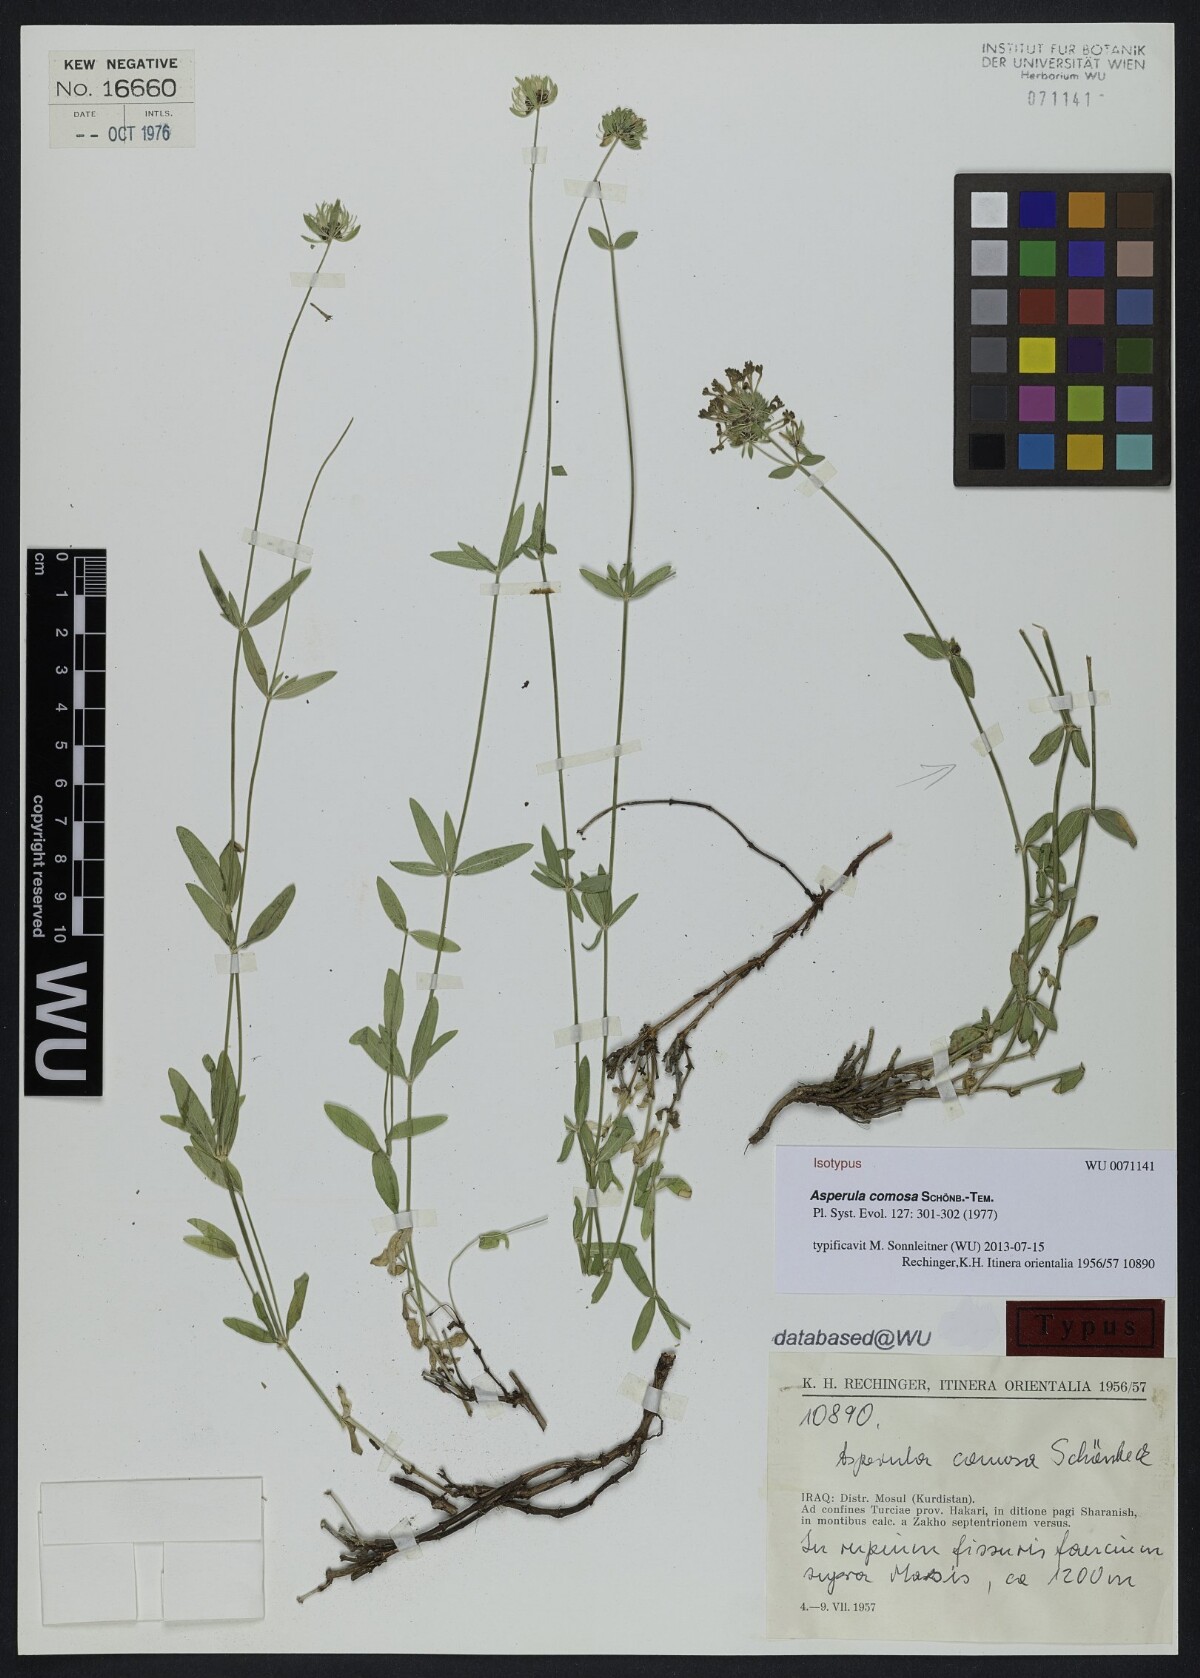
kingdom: Plantae
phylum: Tracheophyta
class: Magnoliopsida
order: Gentianales
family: Rubiaceae
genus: Asperula
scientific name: Asperula comosa
